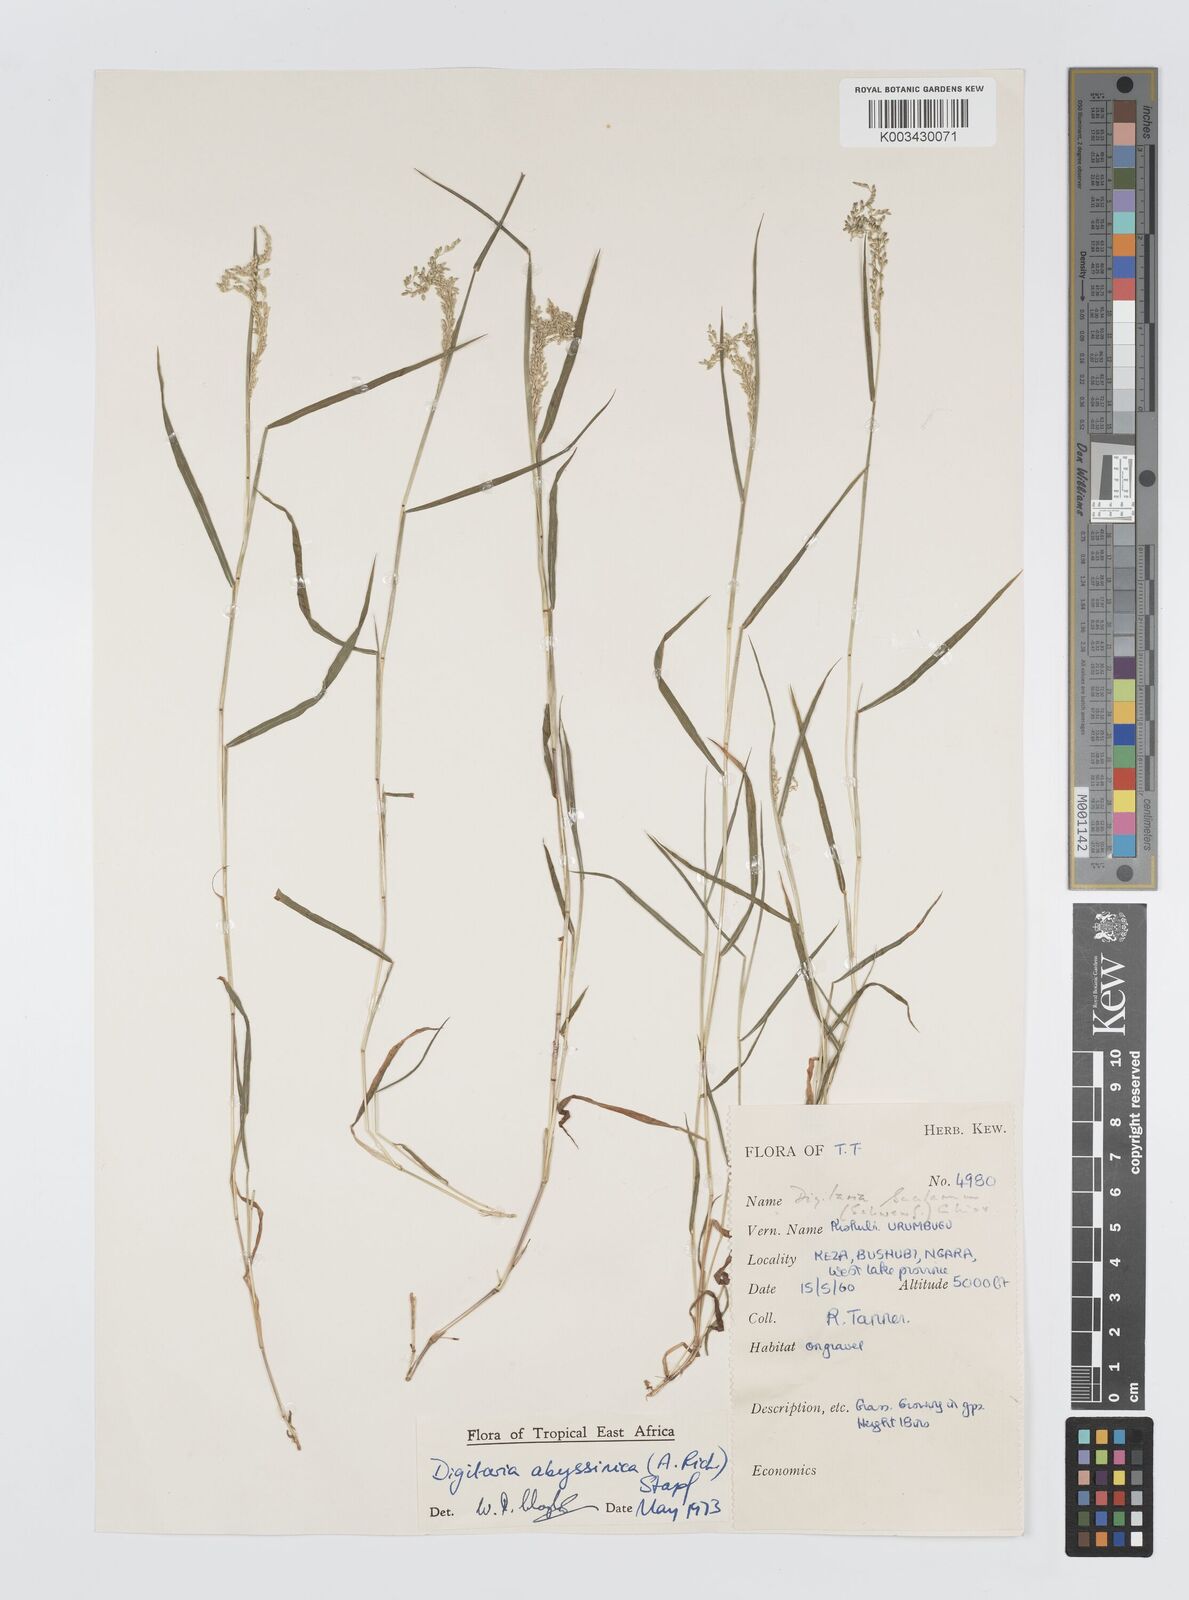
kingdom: Plantae
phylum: Tracheophyta
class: Liliopsida
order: Poales
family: Poaceae
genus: Digitaria
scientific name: Digitaria abyssinica
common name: African couchgrass
